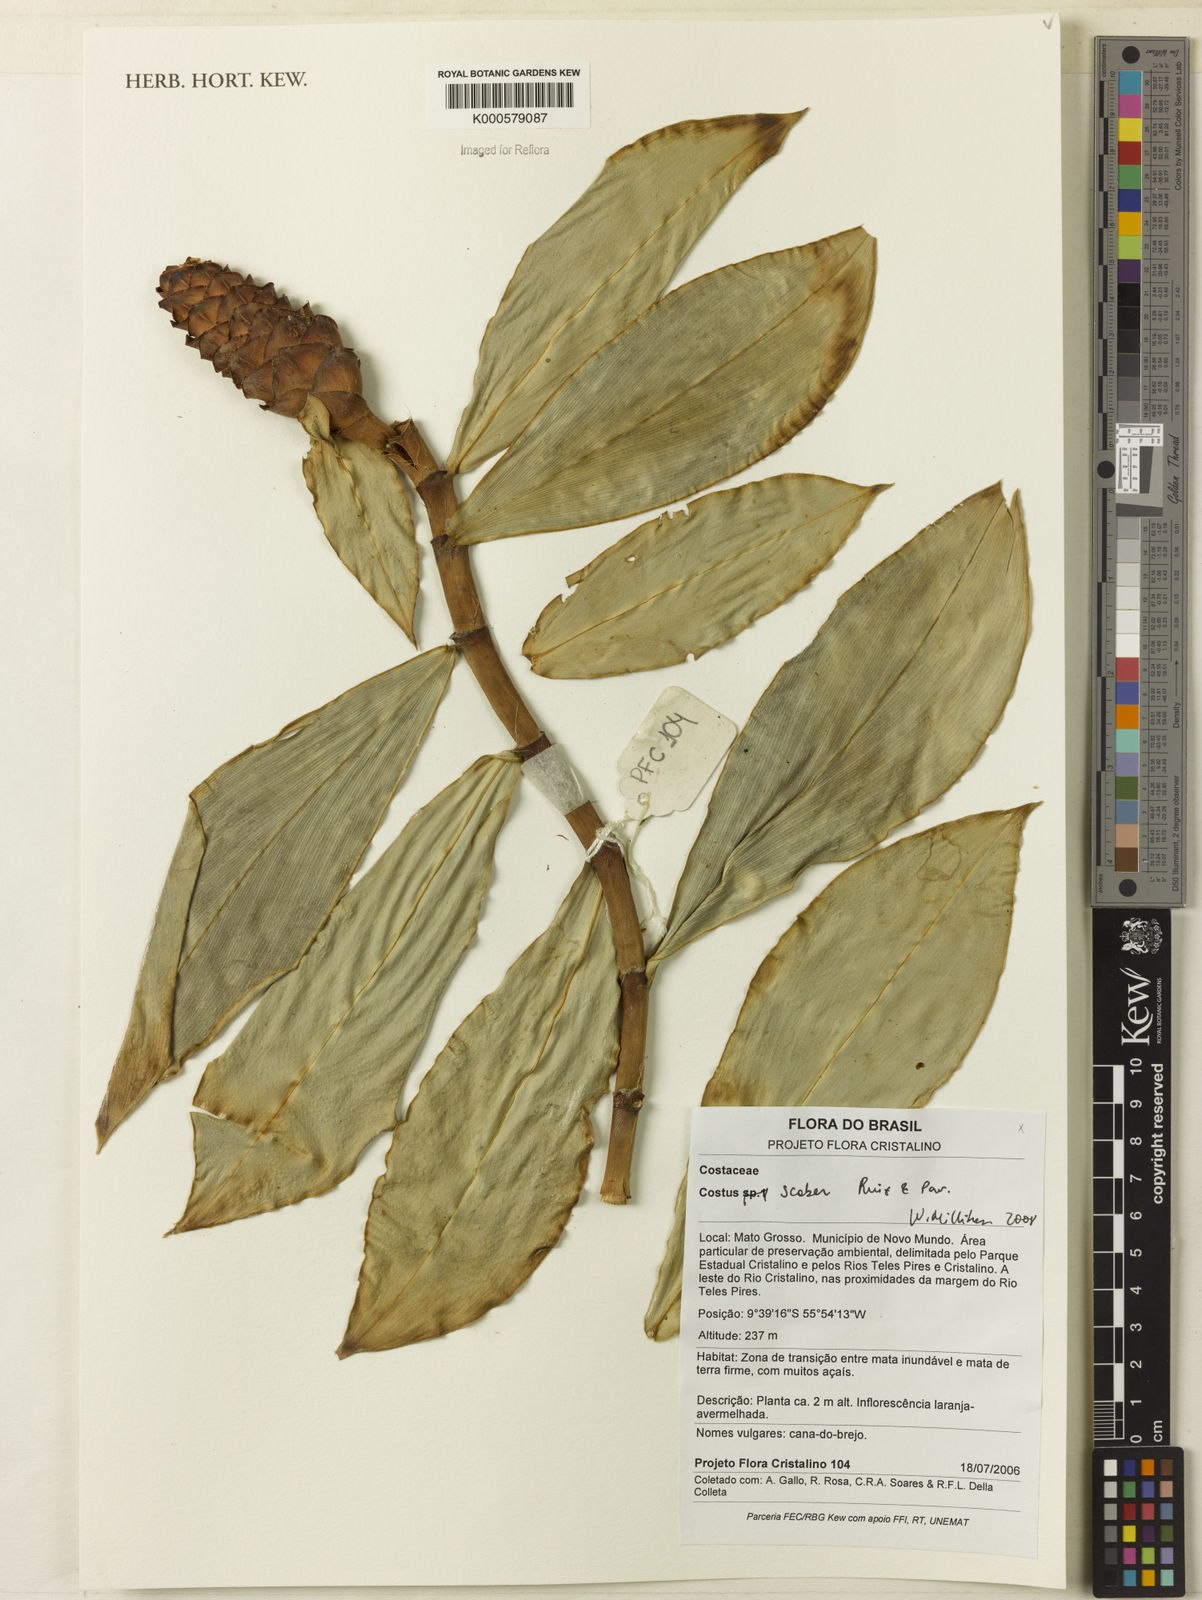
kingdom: Plantae
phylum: Tracheophyta
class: Liliopsida
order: Zingiberales
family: Costaceae
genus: Costus
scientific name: Costus scaber
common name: Spiral head ginger
